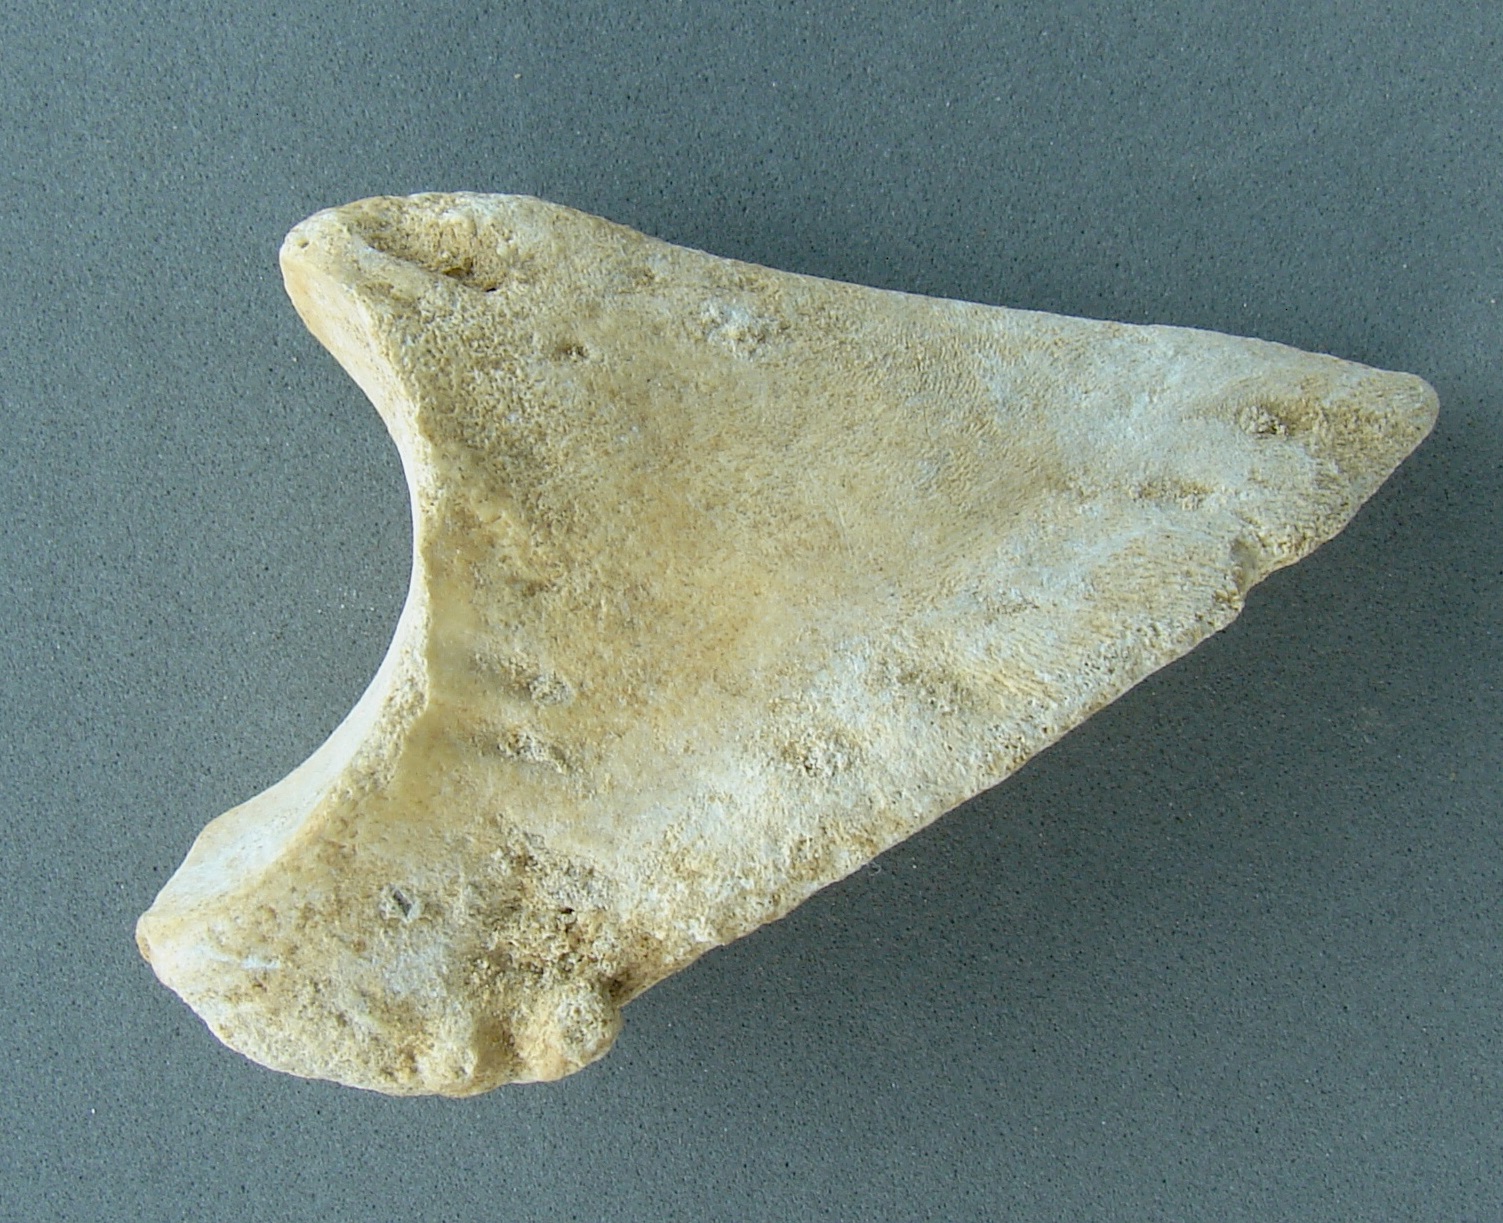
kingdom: Animalia
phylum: Chordata
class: Mammalia
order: Artiodactyla
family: Cervidae
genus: Cervus
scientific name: Cervus elaphus
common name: Red deer
